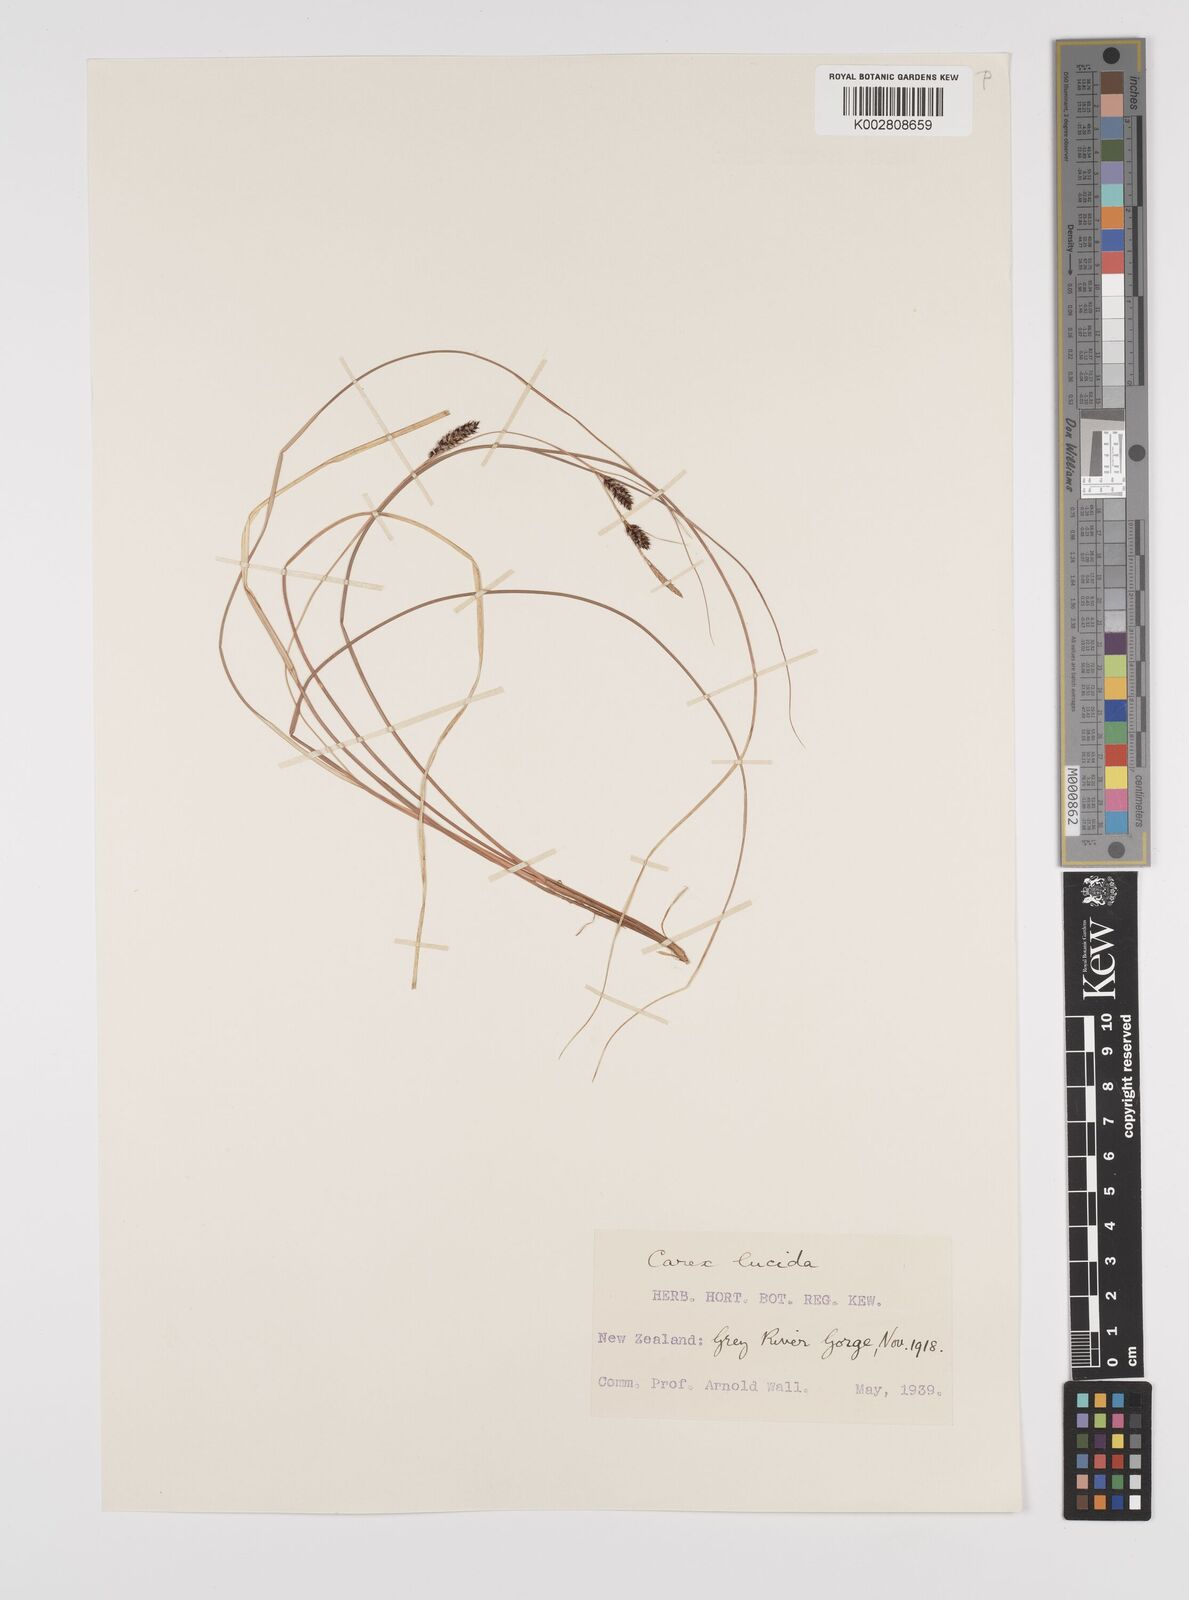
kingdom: Plantae
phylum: Tracheophyta
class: Liliopsida
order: Poales
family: Cyperaceae
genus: Carex
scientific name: Carex flagellifera
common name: Glen murray tussock
